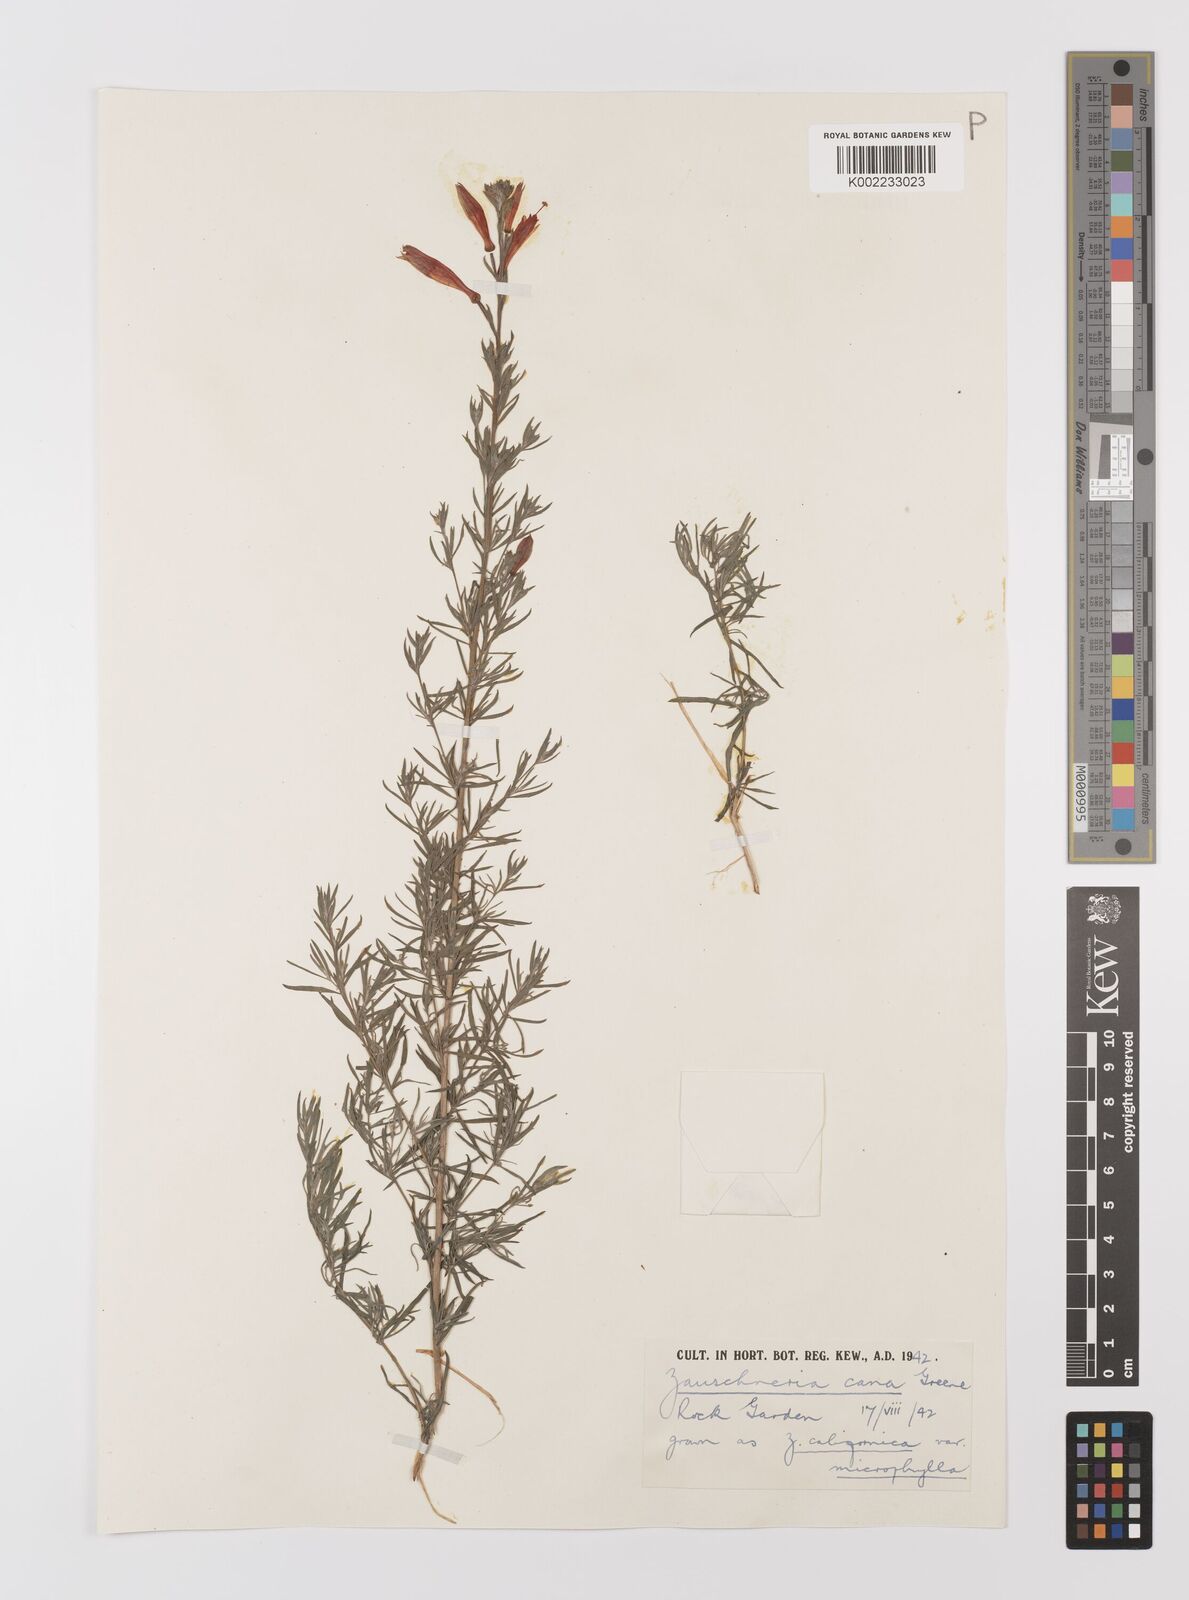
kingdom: Plantae
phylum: Tracheophyta
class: Magnoliopsida
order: Myrtales
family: Onagraceae
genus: Epilobium
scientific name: Epilobium canum
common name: California-fuchsia
